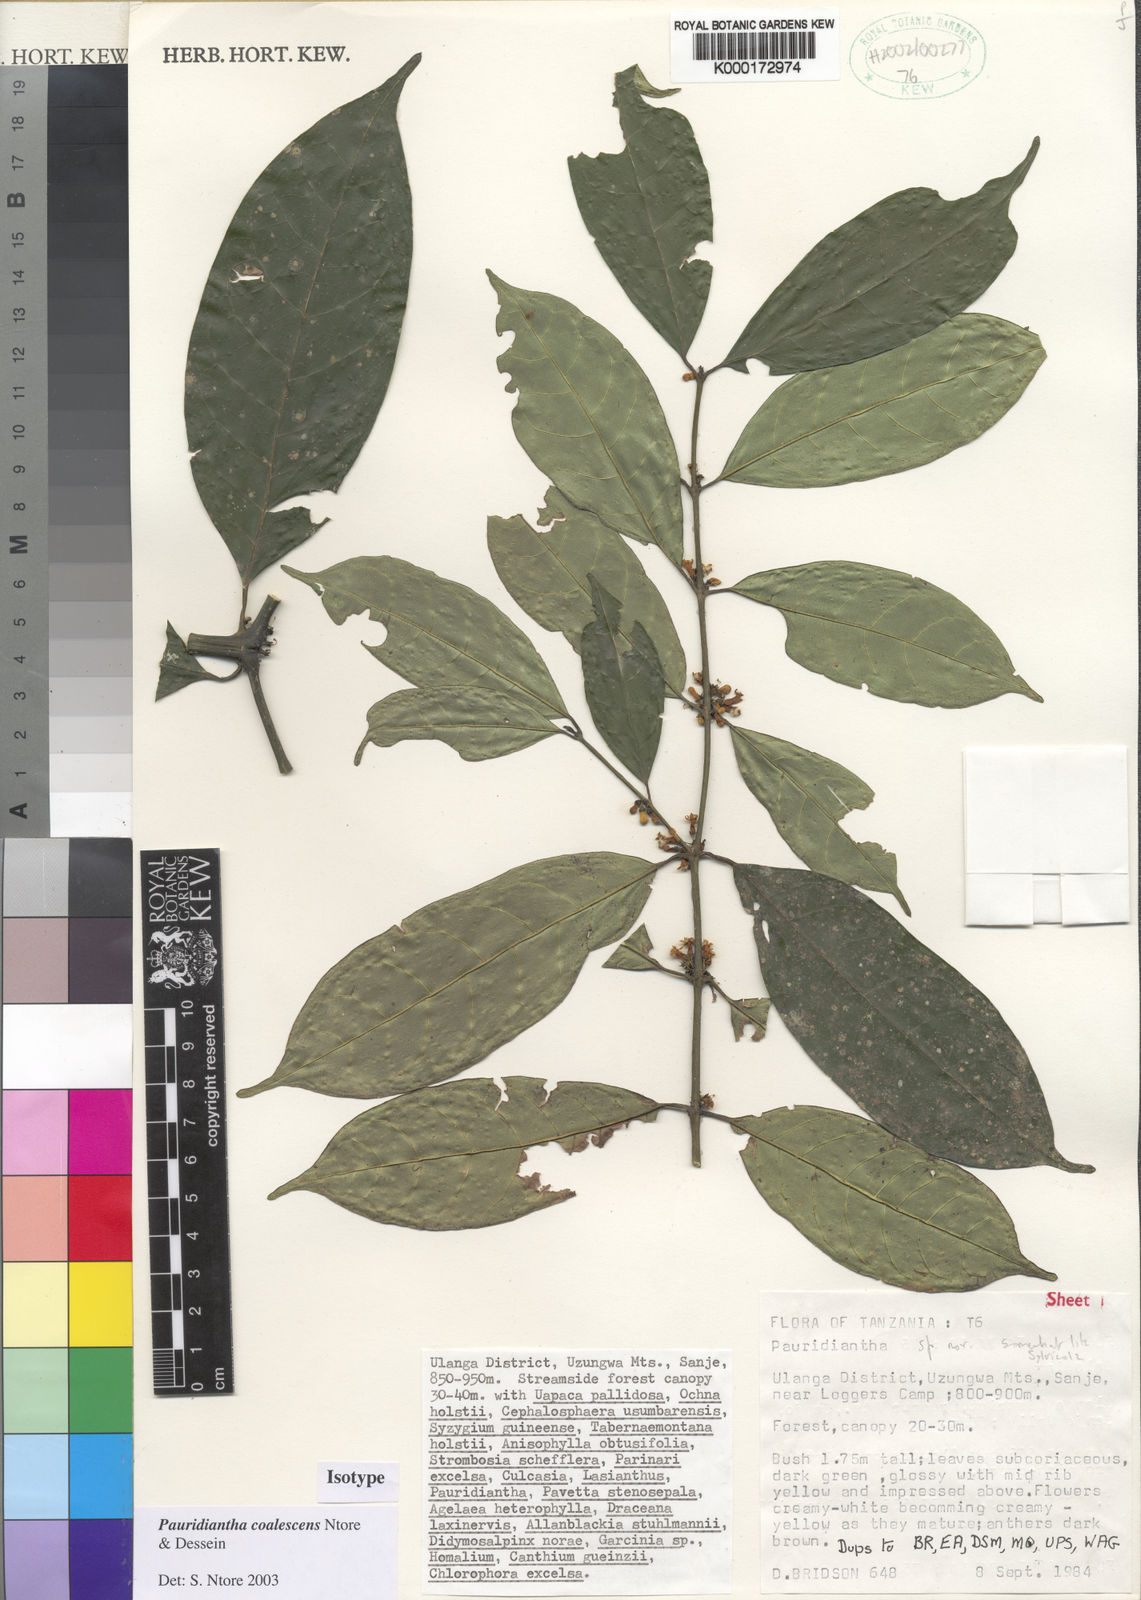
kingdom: Plantae
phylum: Tracheophyta
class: Magnoliopsida
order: Gentianales
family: Rubiaceae
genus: Pauridiantha
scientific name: Pauridiantha coalescens
